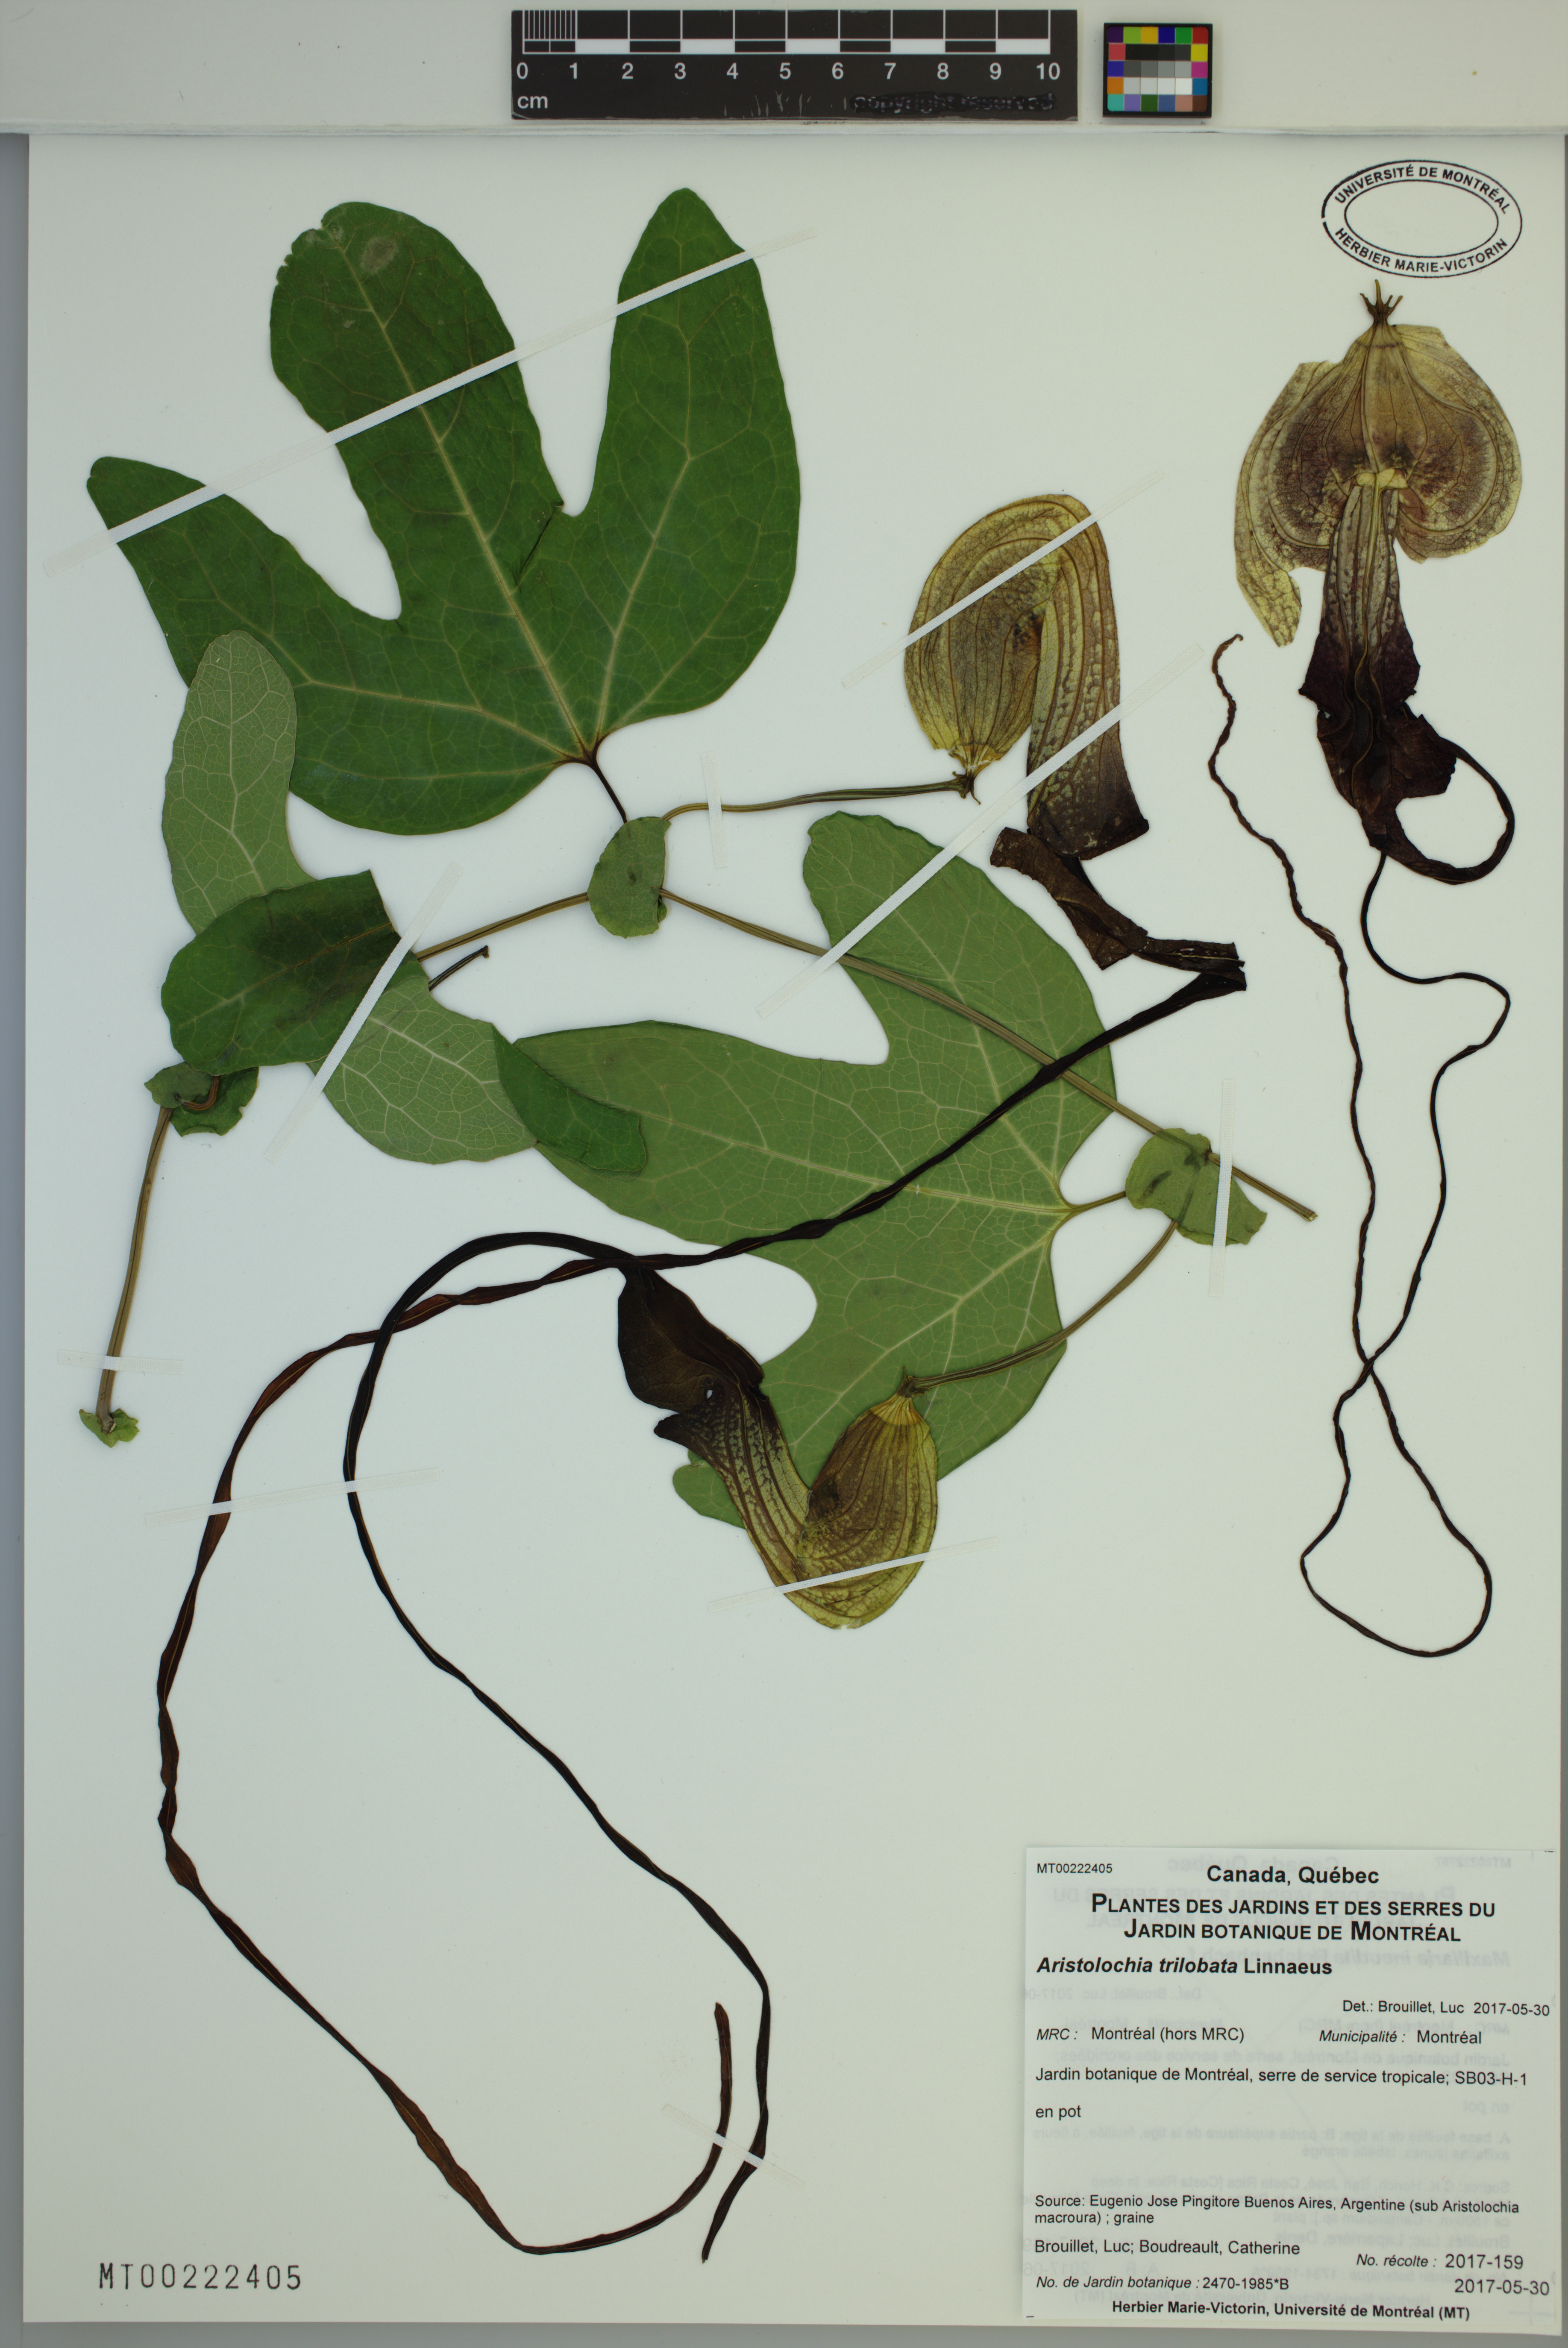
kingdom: Plantae
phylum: Tracheophyta
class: Magnoliopsida
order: Piperales
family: Aristolochiaceae
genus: Aristolochia
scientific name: Aristolochia trilobata
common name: Dutchman's pipe
